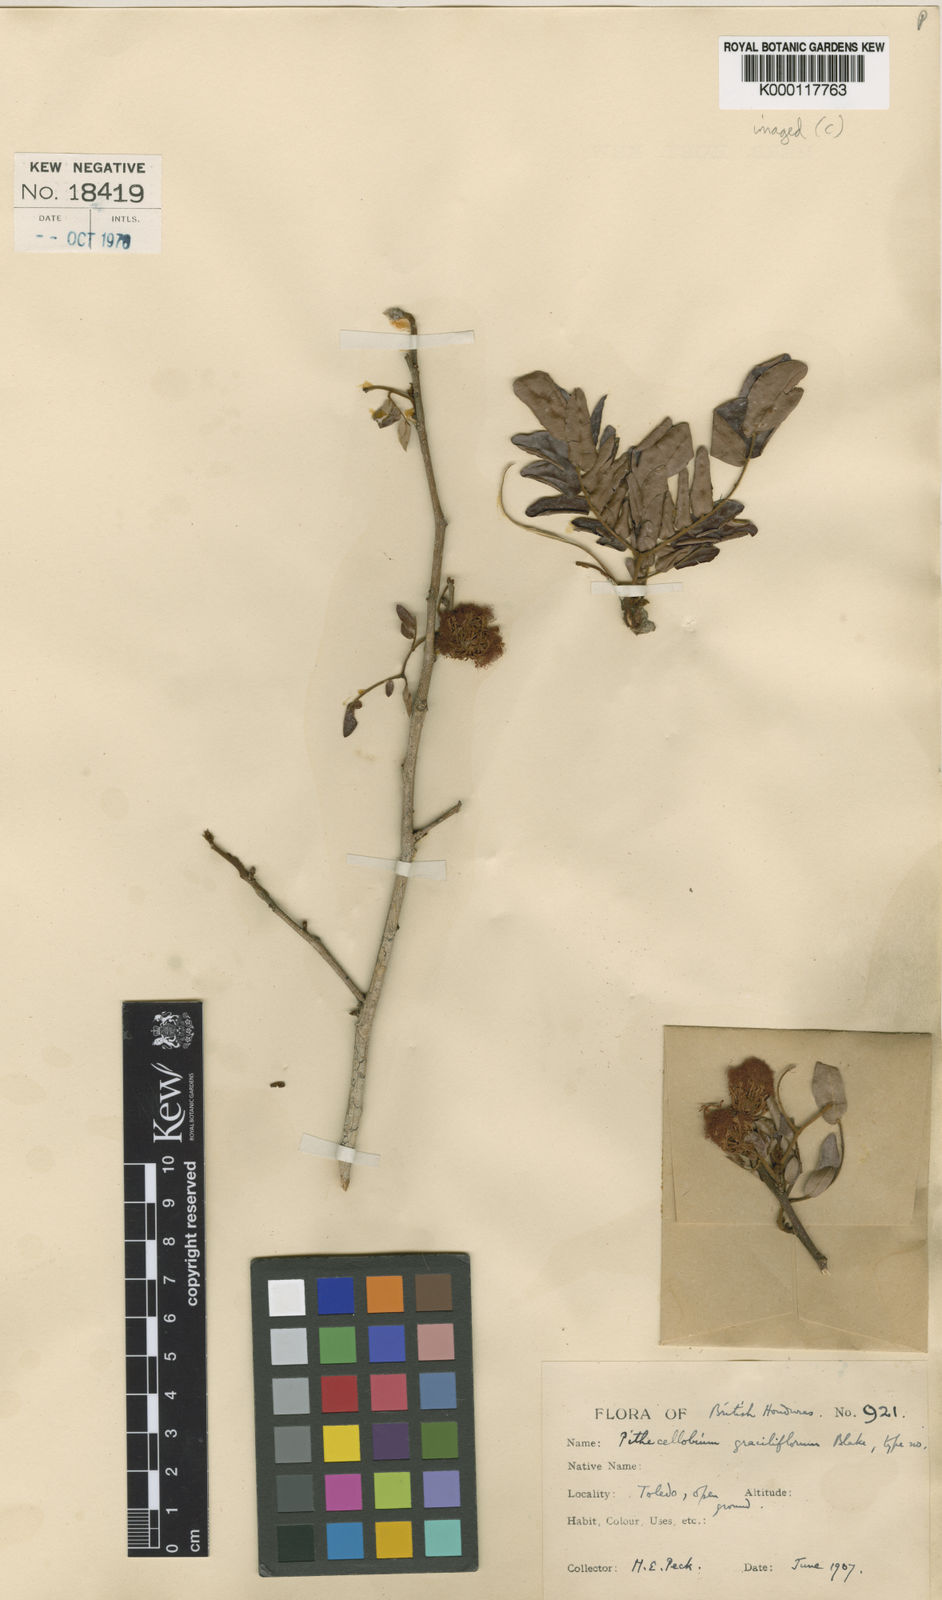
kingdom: Plantae
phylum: Tracheophyta
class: Magnoliopsida
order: Fabales
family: Fabaceae
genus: Cojoba
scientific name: Cojoba graciliflora
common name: Guadeloupe blackbead
